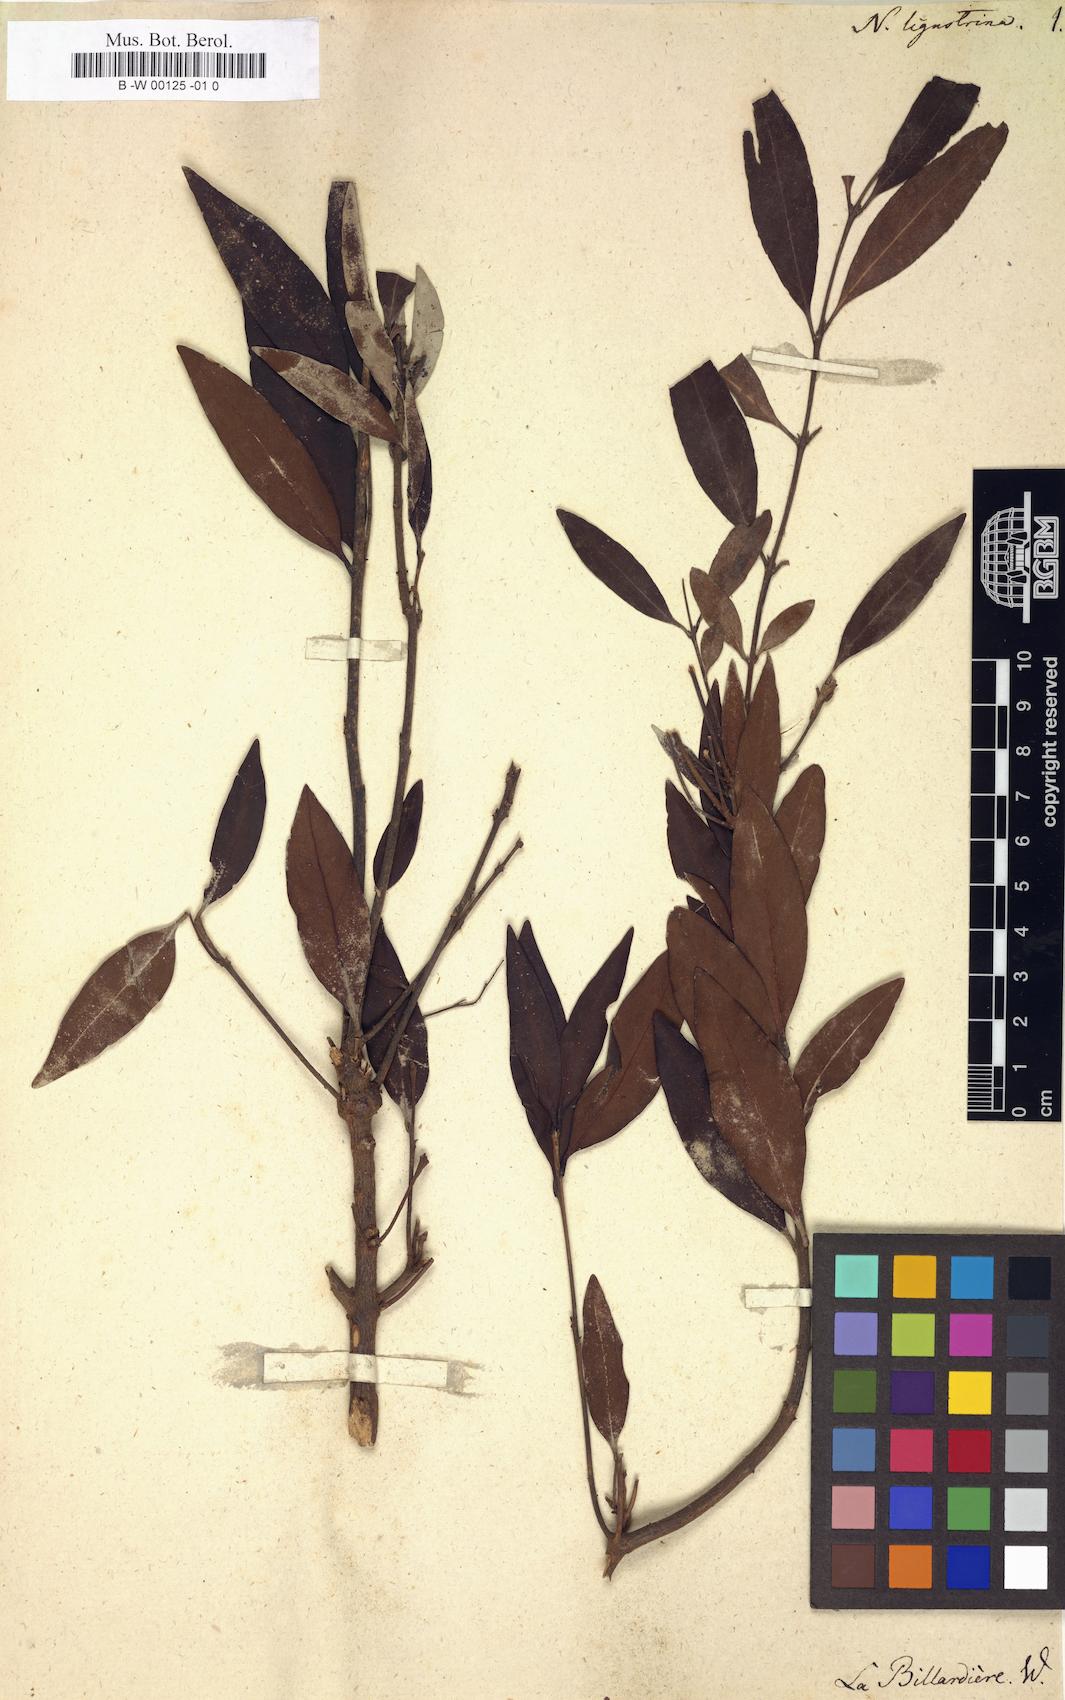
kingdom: Plantae
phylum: Tracheophyta
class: Magnoliopsida
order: Lamiales
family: Oleaceae
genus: Notelaea
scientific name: Notelaea ligustrina
